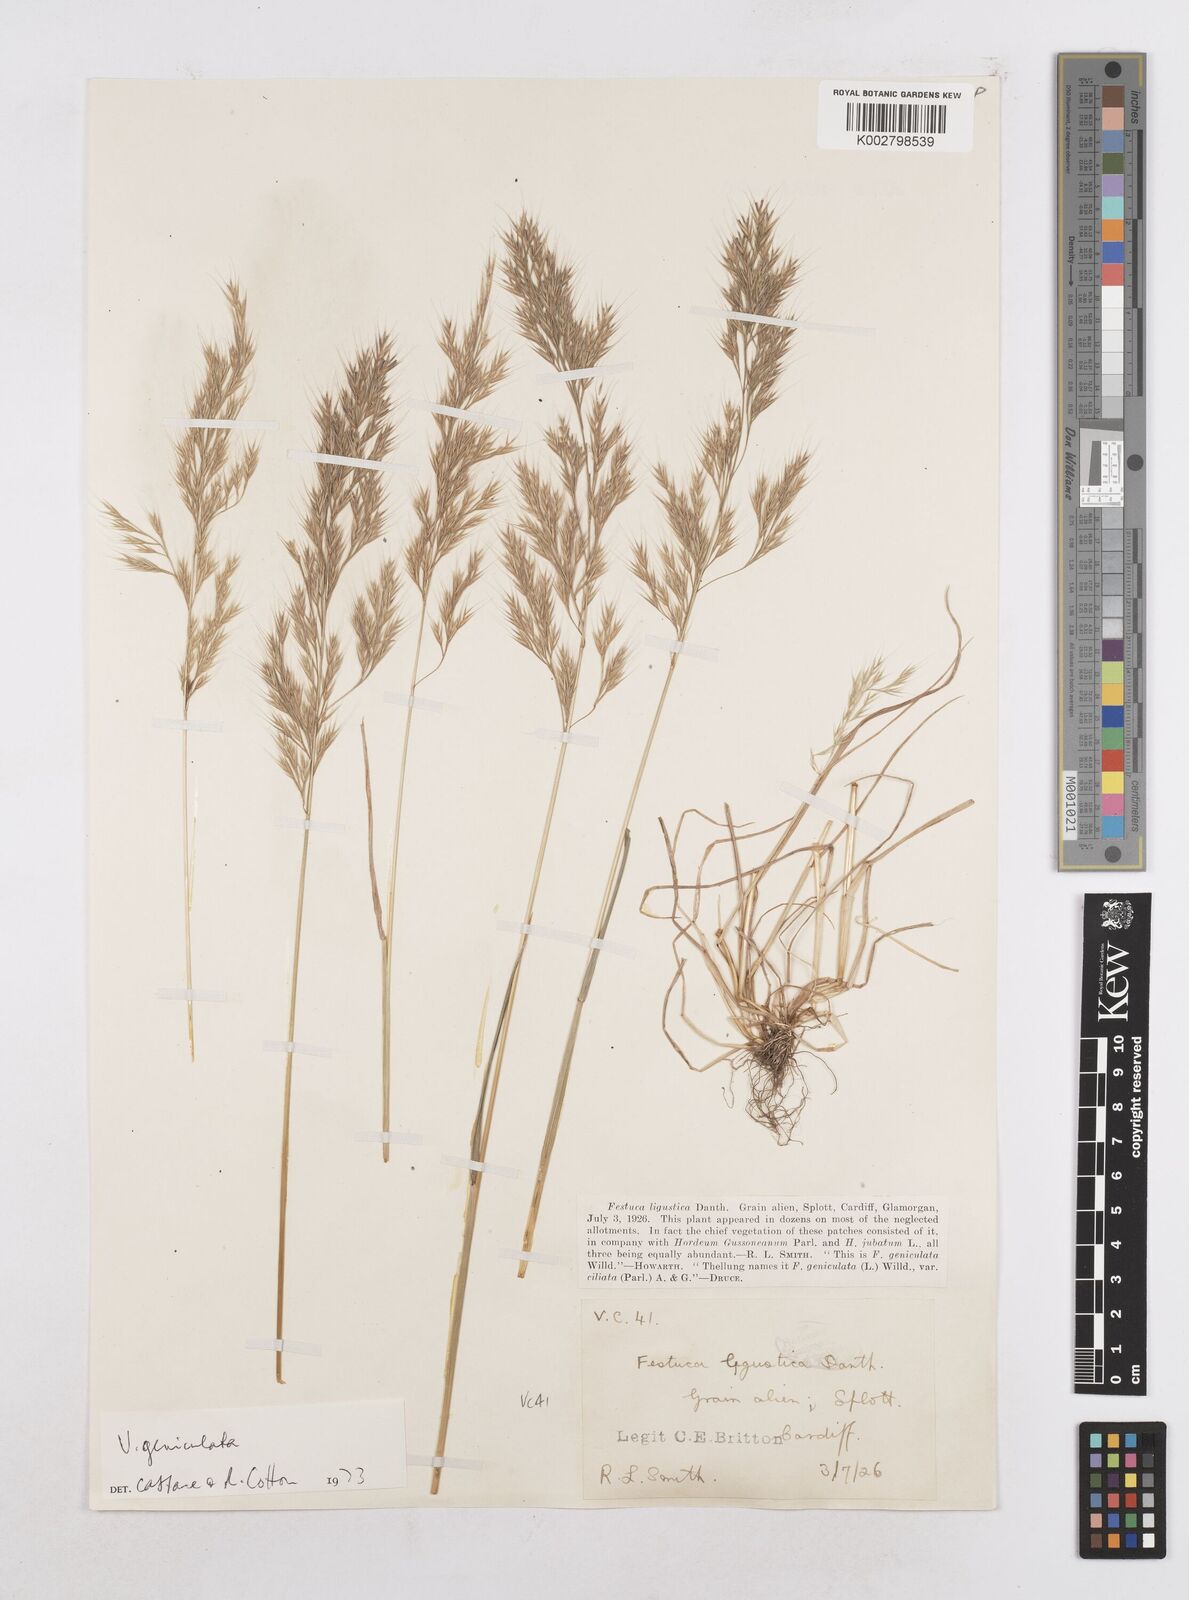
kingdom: Plantae
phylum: Tracheophyta
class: Liliopsida
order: Poales
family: Poaceae
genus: Festuca
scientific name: Festuca geniculata
